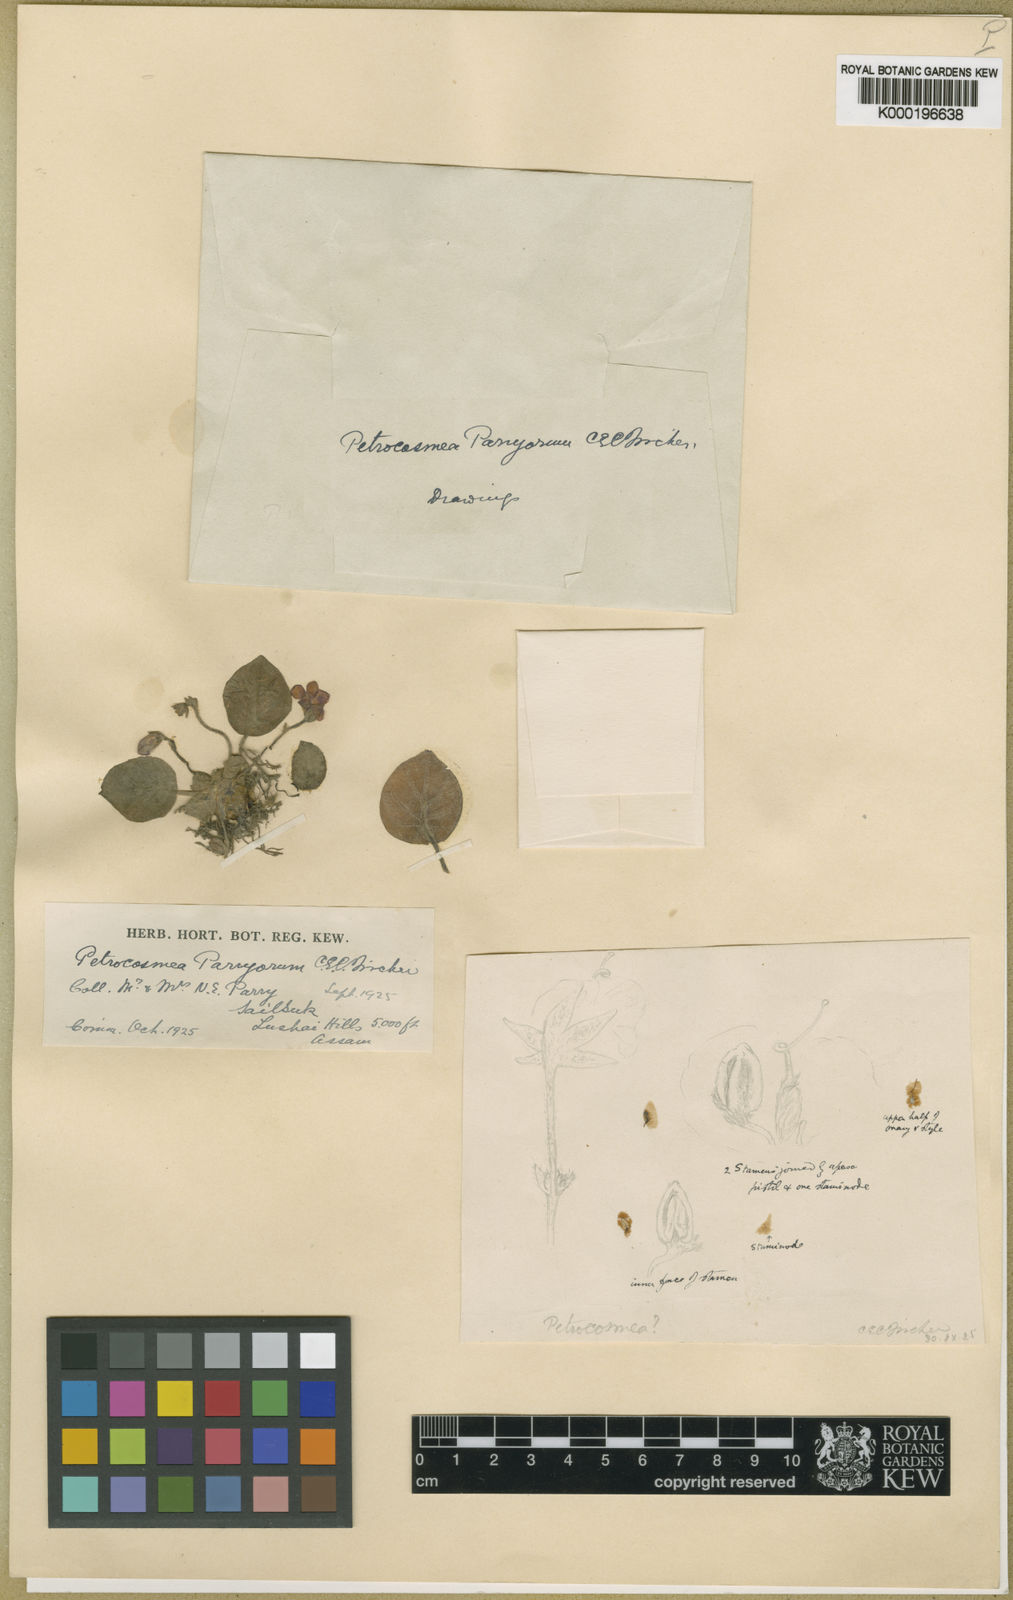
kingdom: Plantae
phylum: Tracheophyta
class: Magnoliopsida
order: Lamiales
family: Gesneriaceae
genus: Petrocosmea
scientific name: Petrocosmea parryorum
